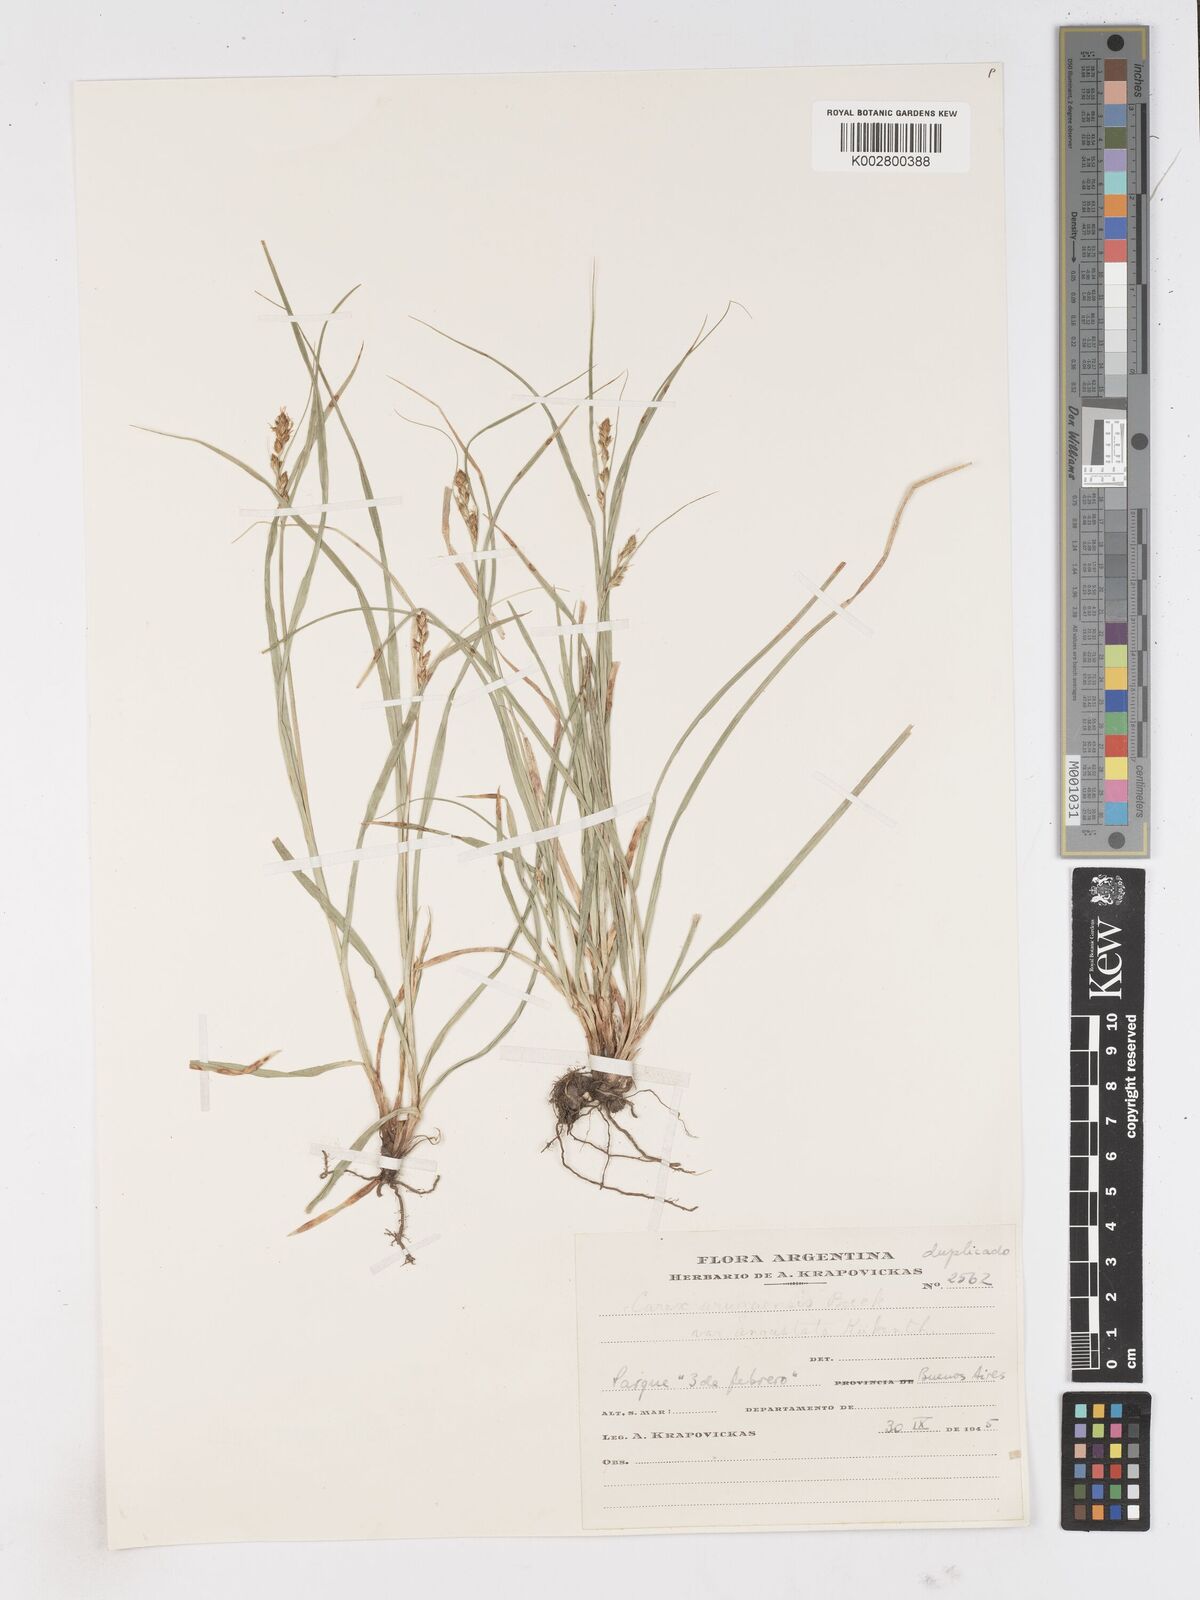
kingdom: Plantae
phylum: Tracheophyta
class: Liliopsida
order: Poales
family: Cyperaceae
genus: Carex
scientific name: Carex uruguensis
